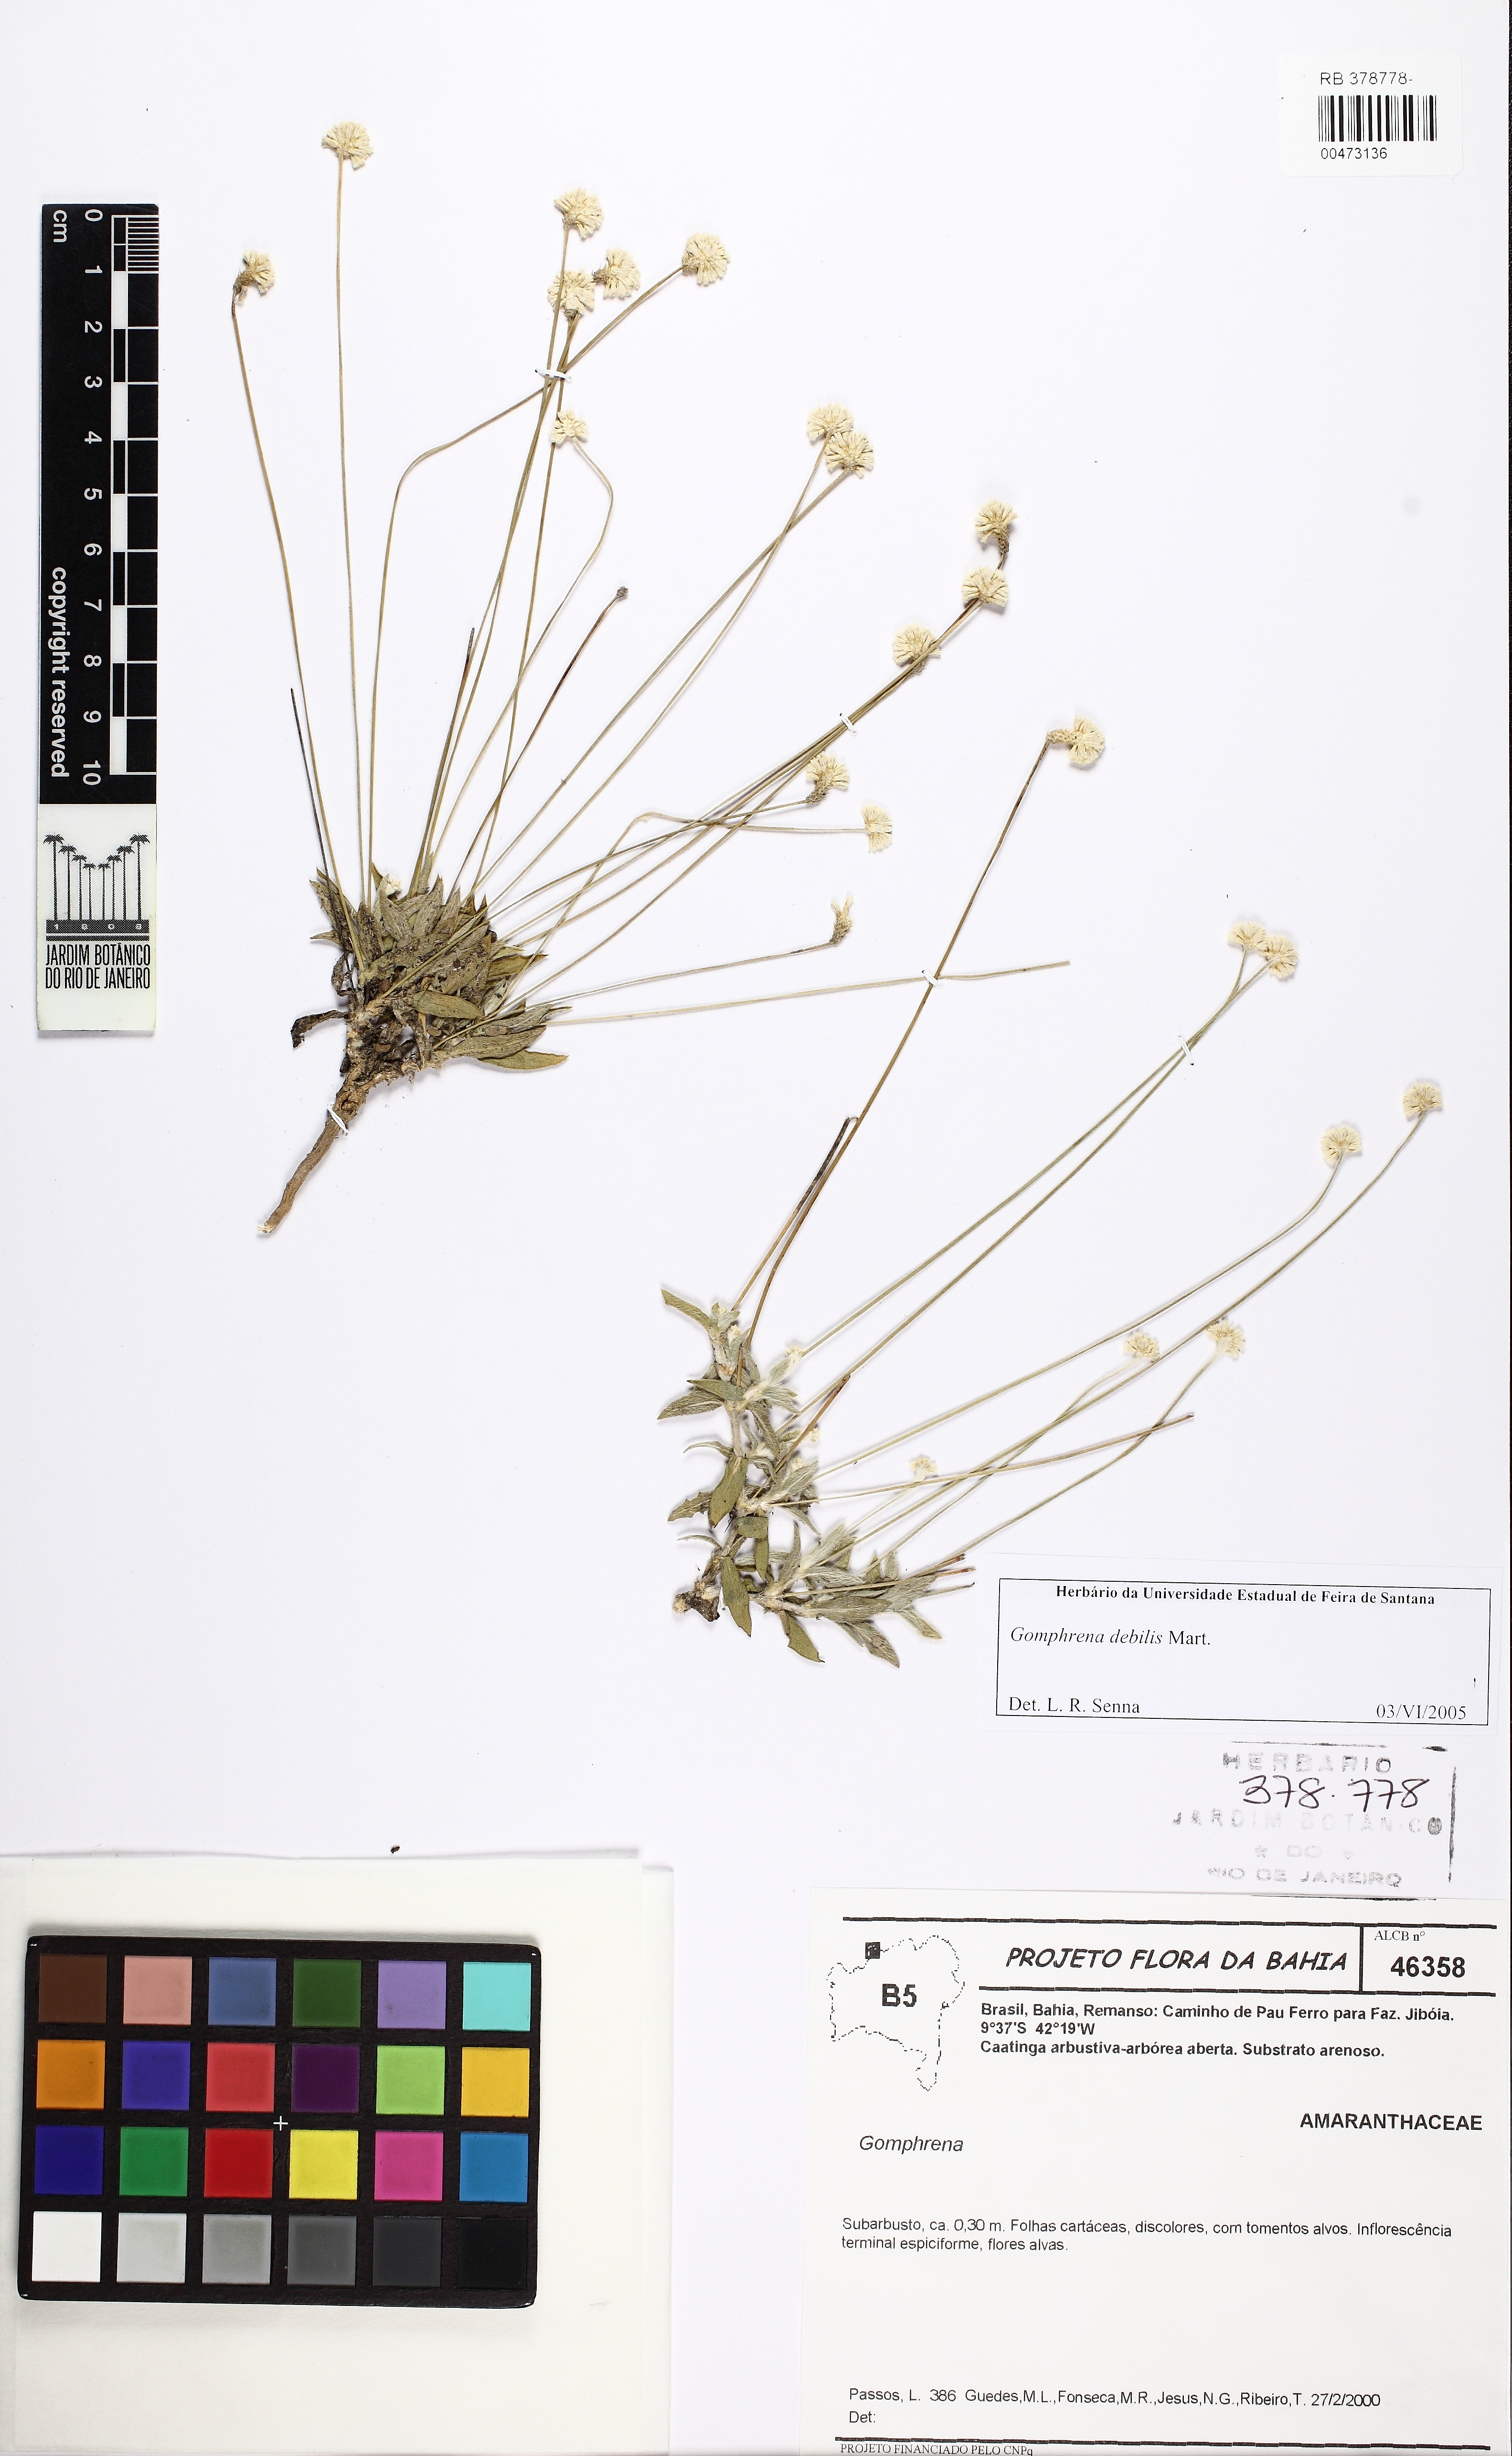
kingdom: Plantae
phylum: Tracheophyta
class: Magnoliopsida
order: Caryophyllales
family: Amaranthaceae
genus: Gomphrena
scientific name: Gomphrena debilis
